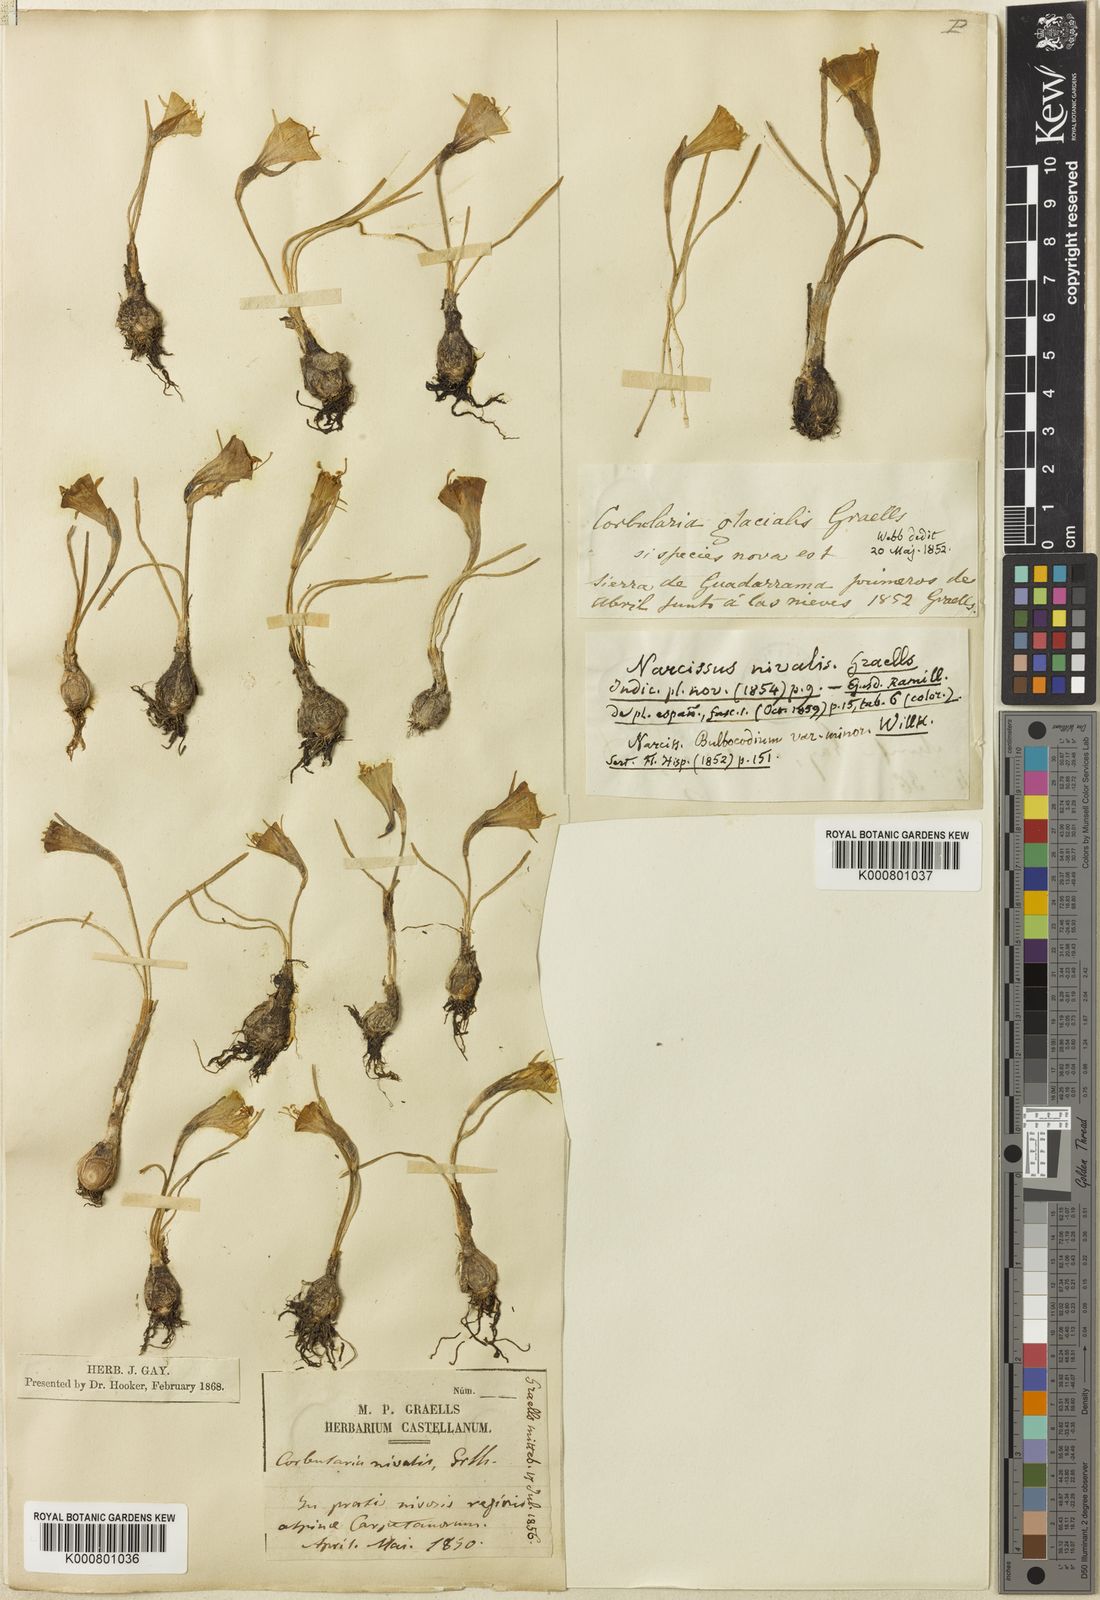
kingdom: Plantae
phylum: Tracheophyta
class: Liliopsida
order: Asparagales
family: Amaryllidaceae
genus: Narcissus
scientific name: Narcissus bulbocodium
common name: Hoop-petticoat daffodil
